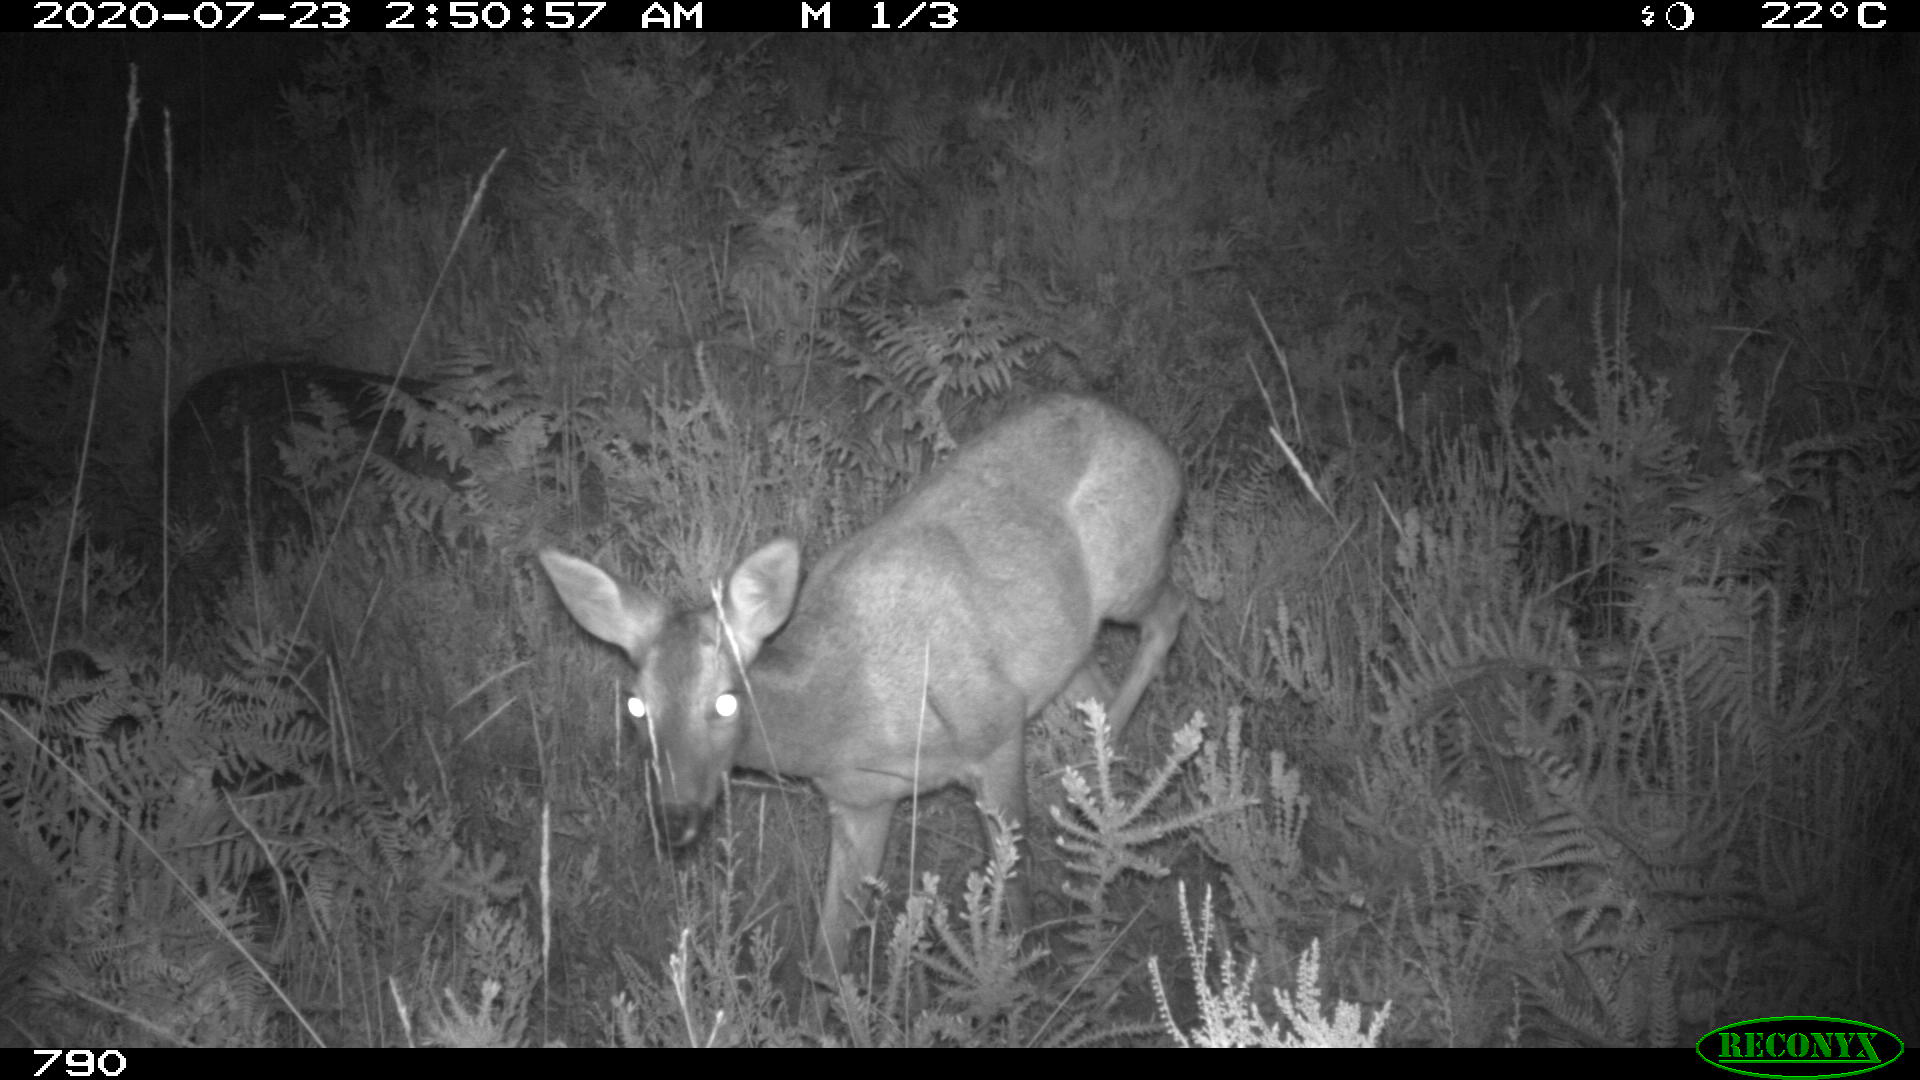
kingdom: Animalia
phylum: Chordata
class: Mammalia
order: Artiodactyla
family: Cervidae
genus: Capreolus
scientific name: Capreolus capreolus
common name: Western roe deer
